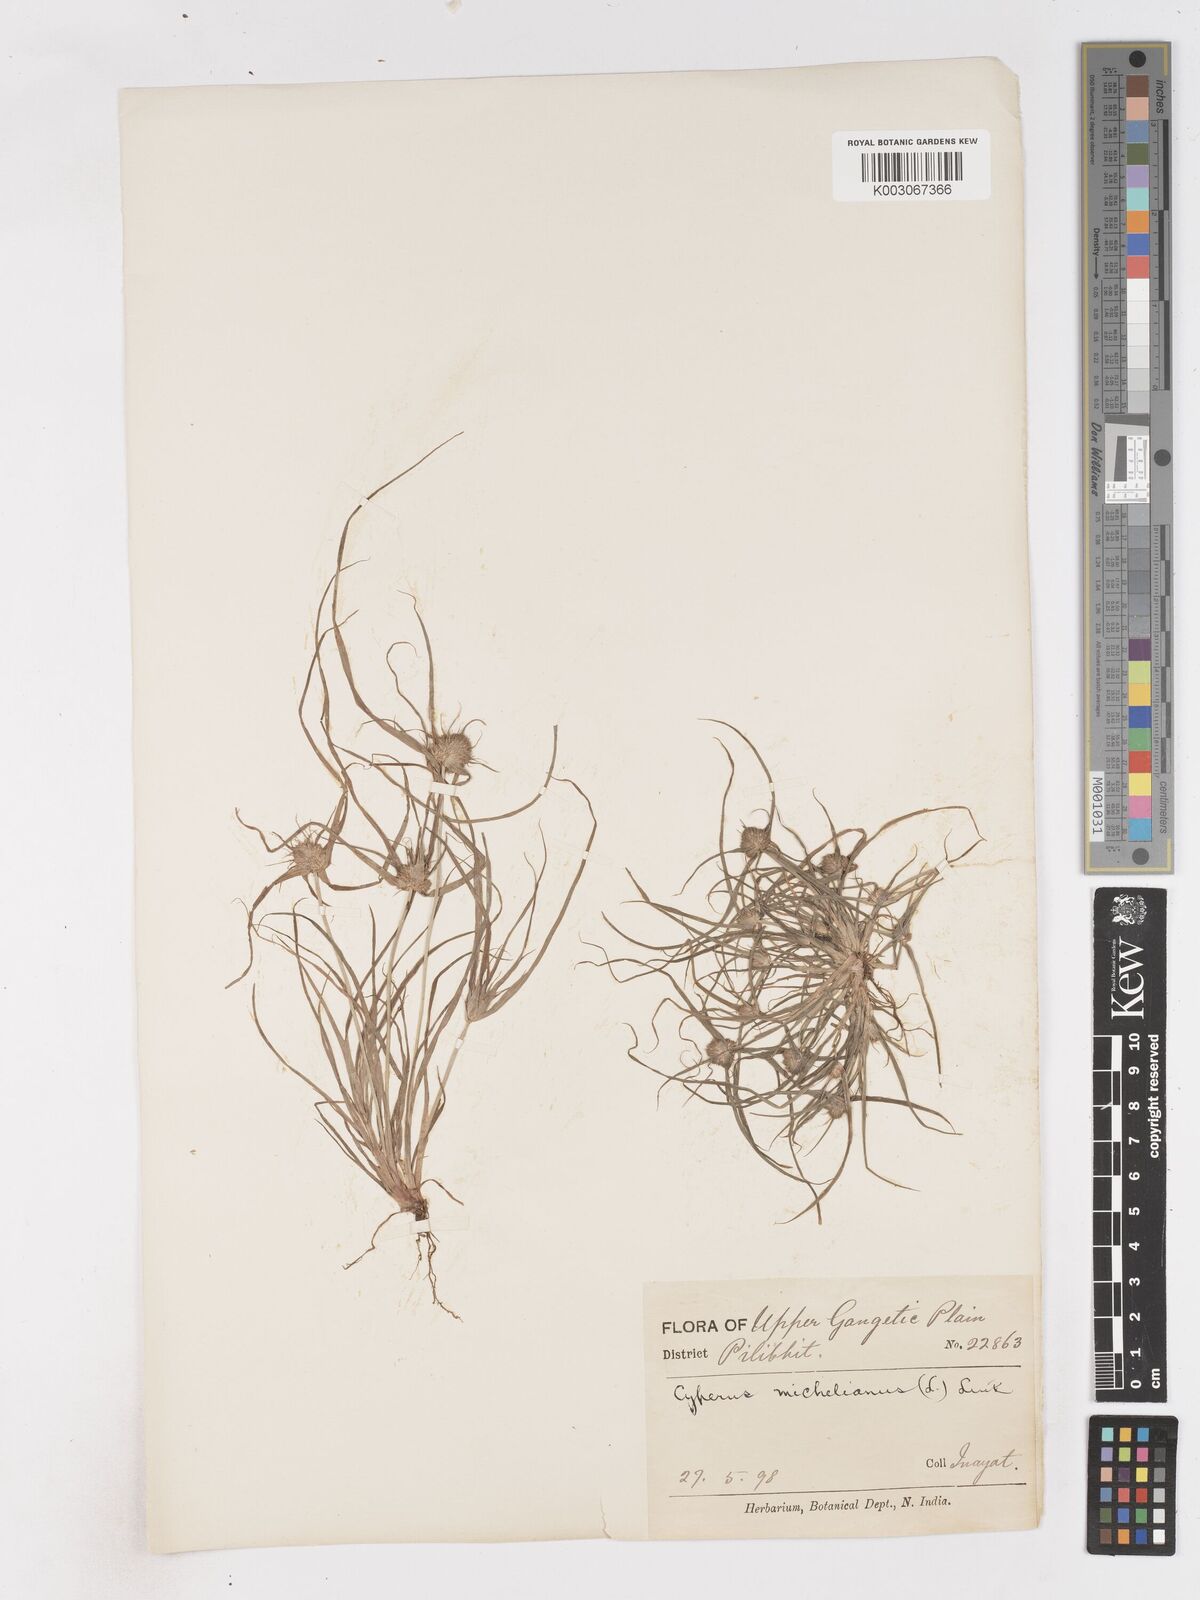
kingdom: Plantae
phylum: Tracheophyta
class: Liliopsida
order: Poales
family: Cyperaceae
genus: Cyperus
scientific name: Cyperus michelianus
